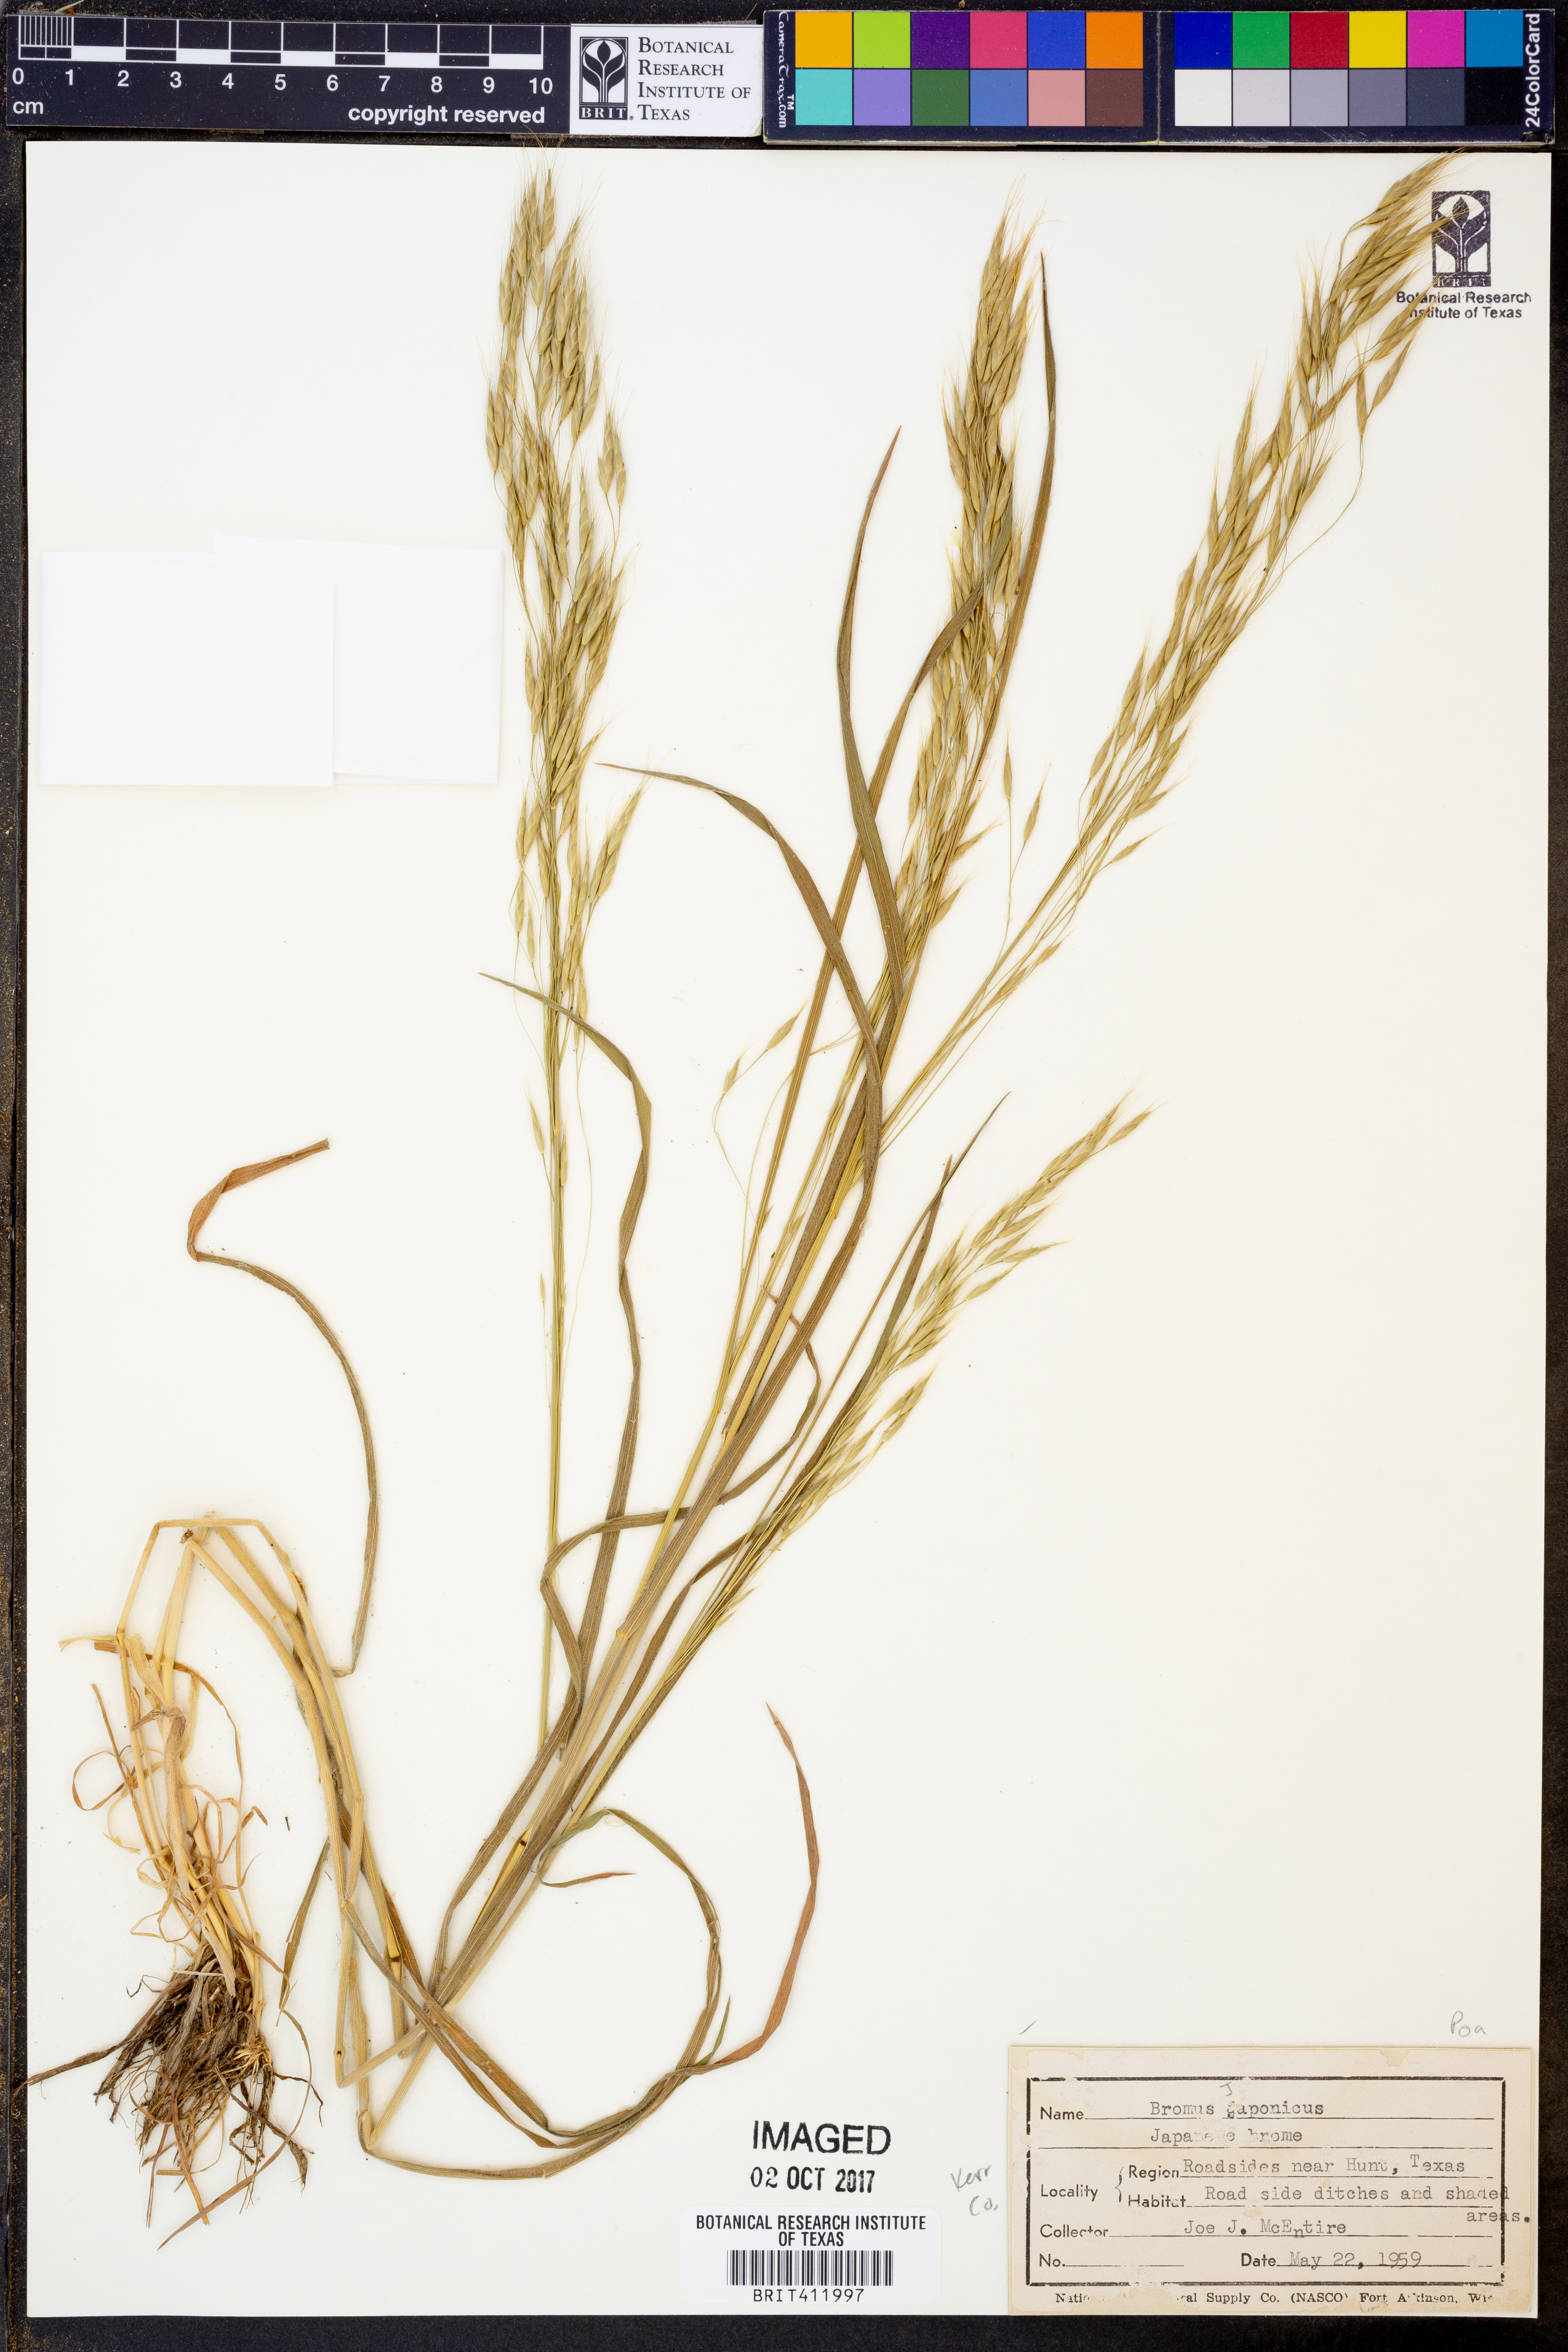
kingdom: Plantae
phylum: Tracheophyta
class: Liliopsida
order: Poales
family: Poaceae
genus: Bromus
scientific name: Bromus japonicus
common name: Japanese brome
